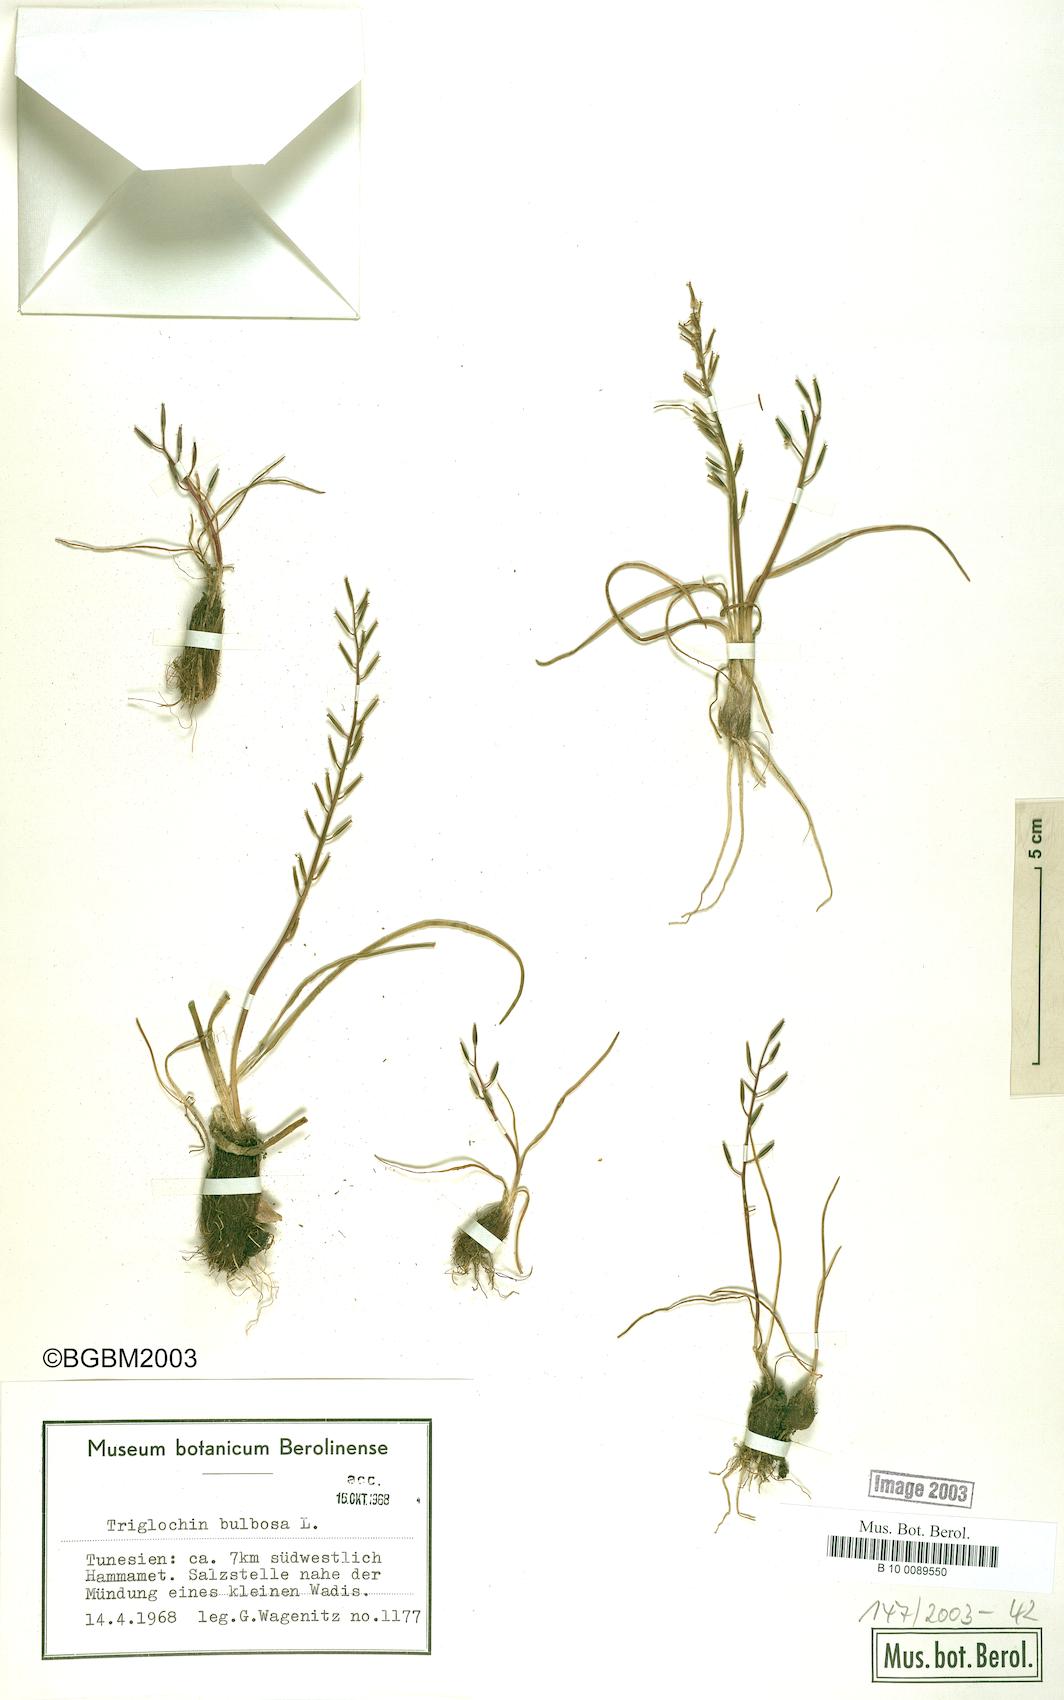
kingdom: Plantae
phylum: Tracheophyta
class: Liliopsida
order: Alismatales
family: Juncaginaceae
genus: Triglochin
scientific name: Triglochin bulbosa
